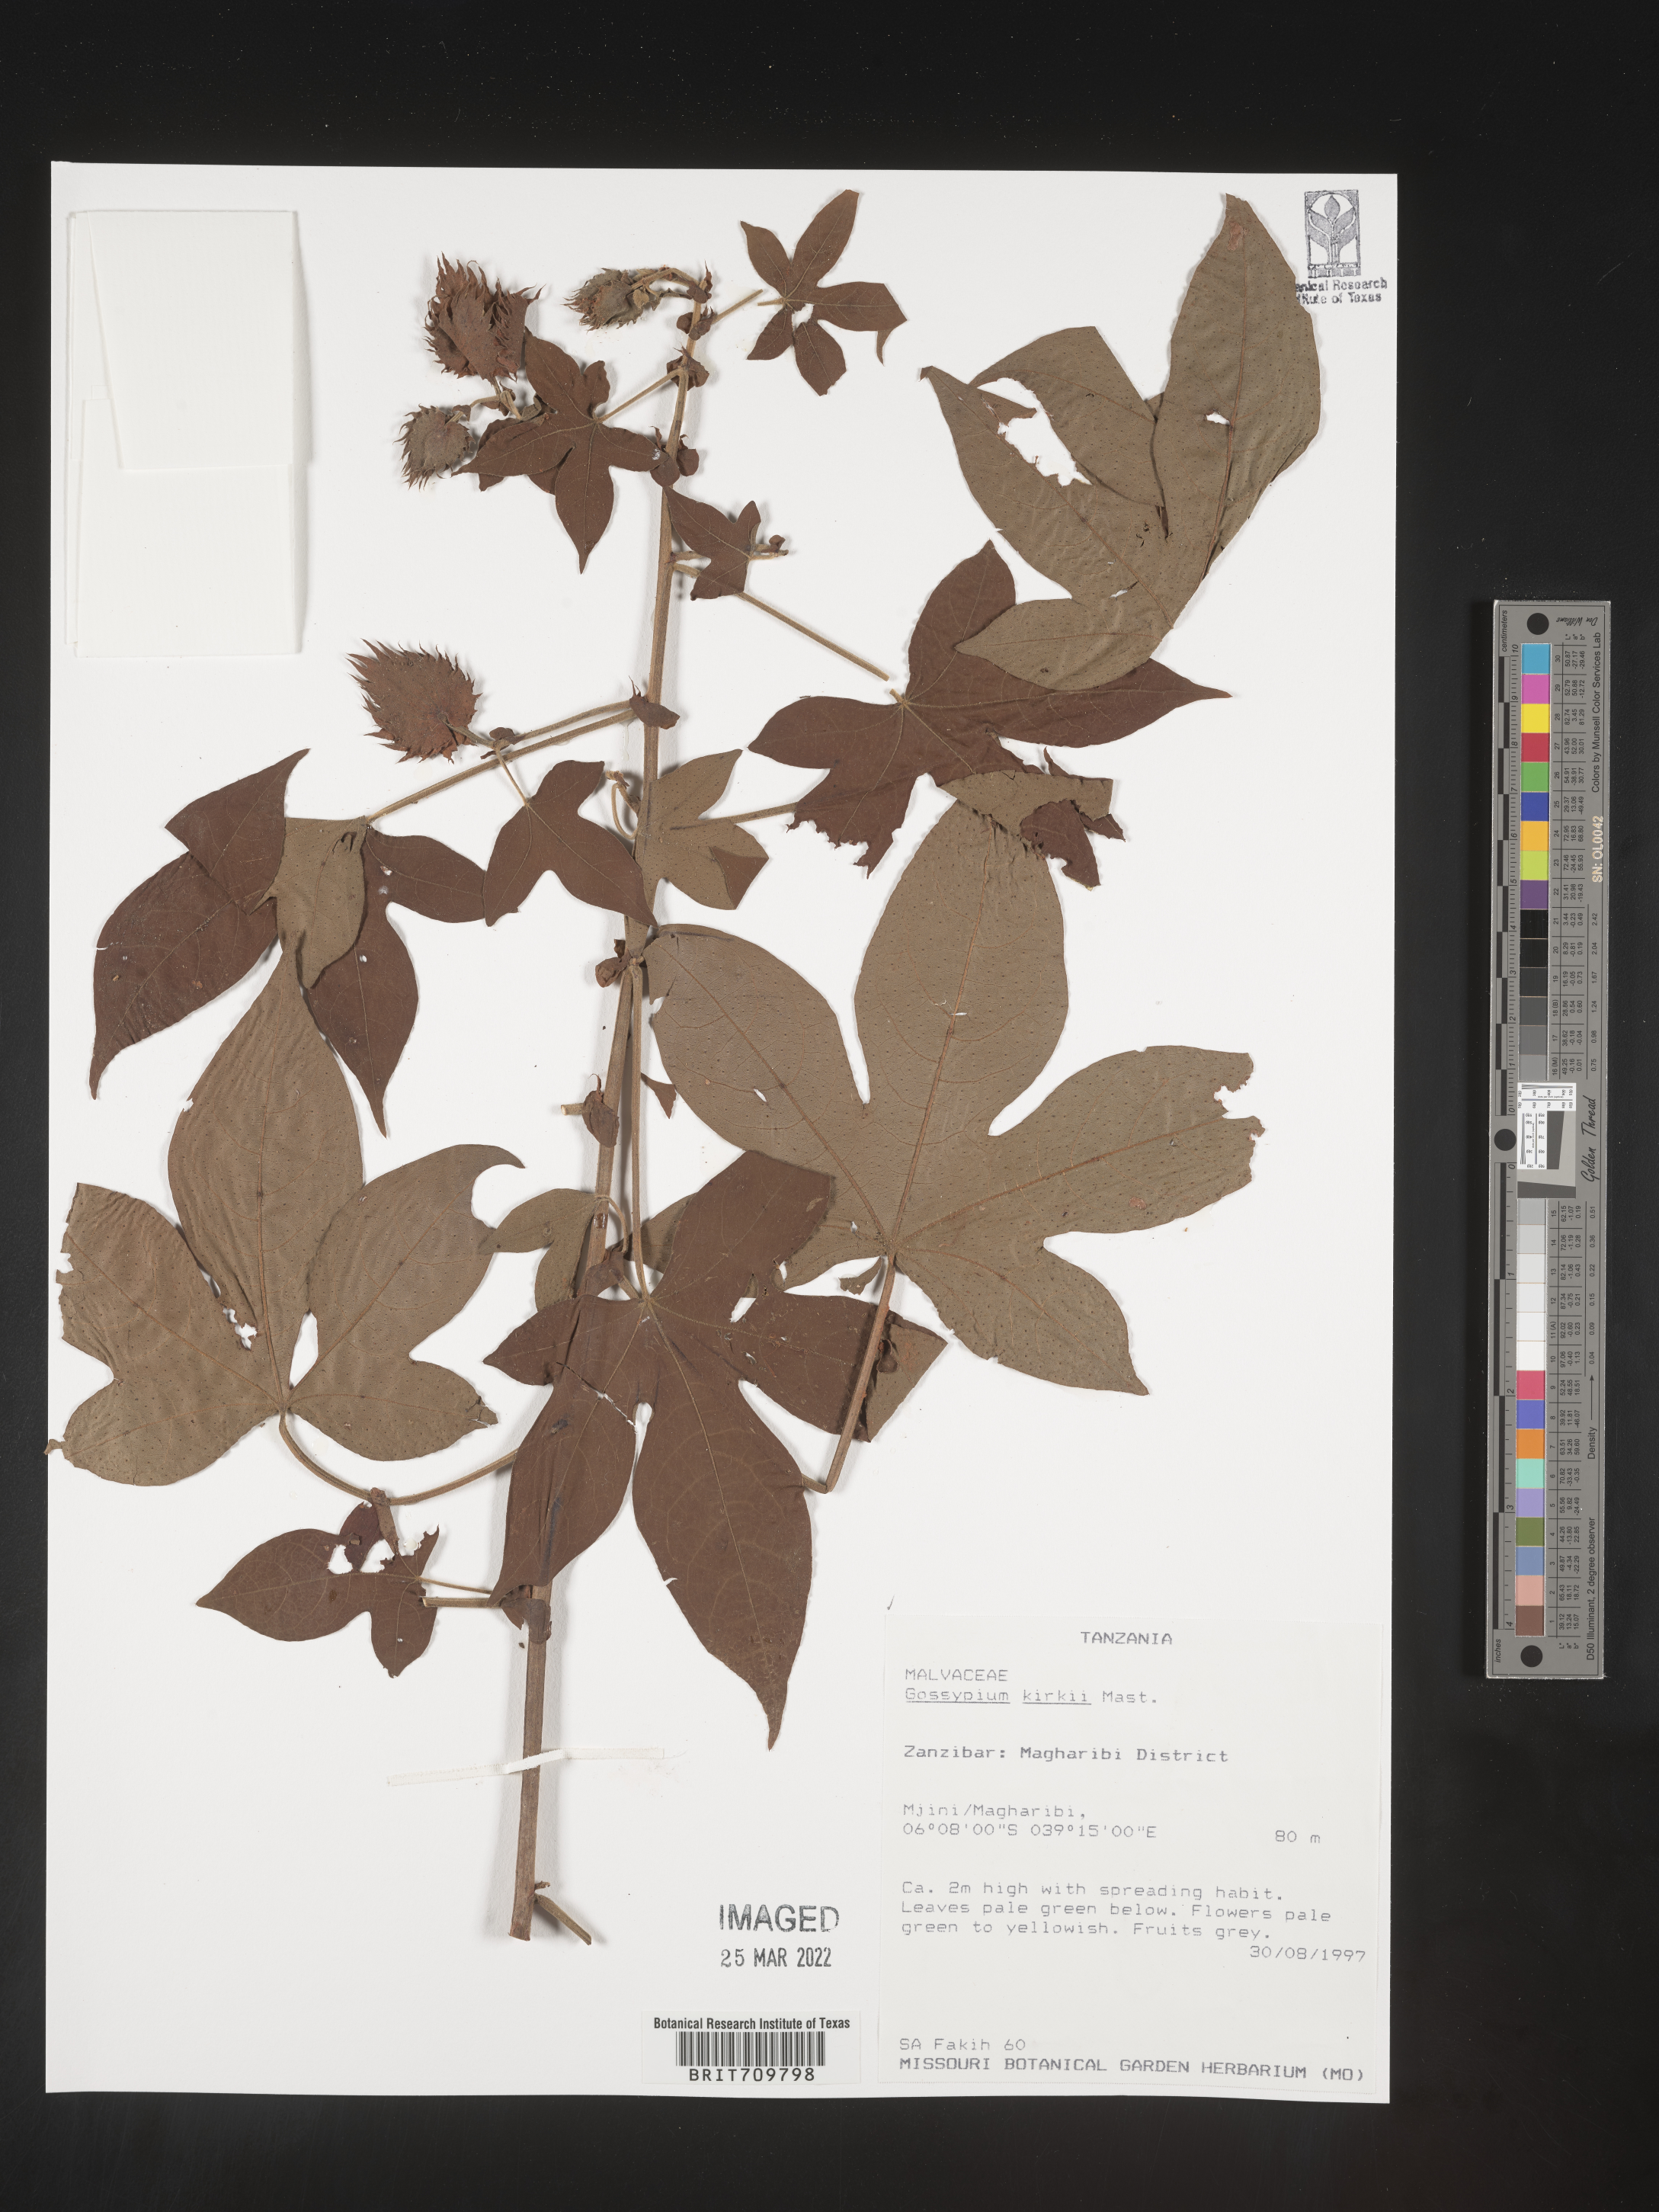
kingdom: Plantae
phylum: Tracheophyta
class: Magnoliopsida
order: Malvales
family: Malvaceae
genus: Gossypium
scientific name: Gossypium
